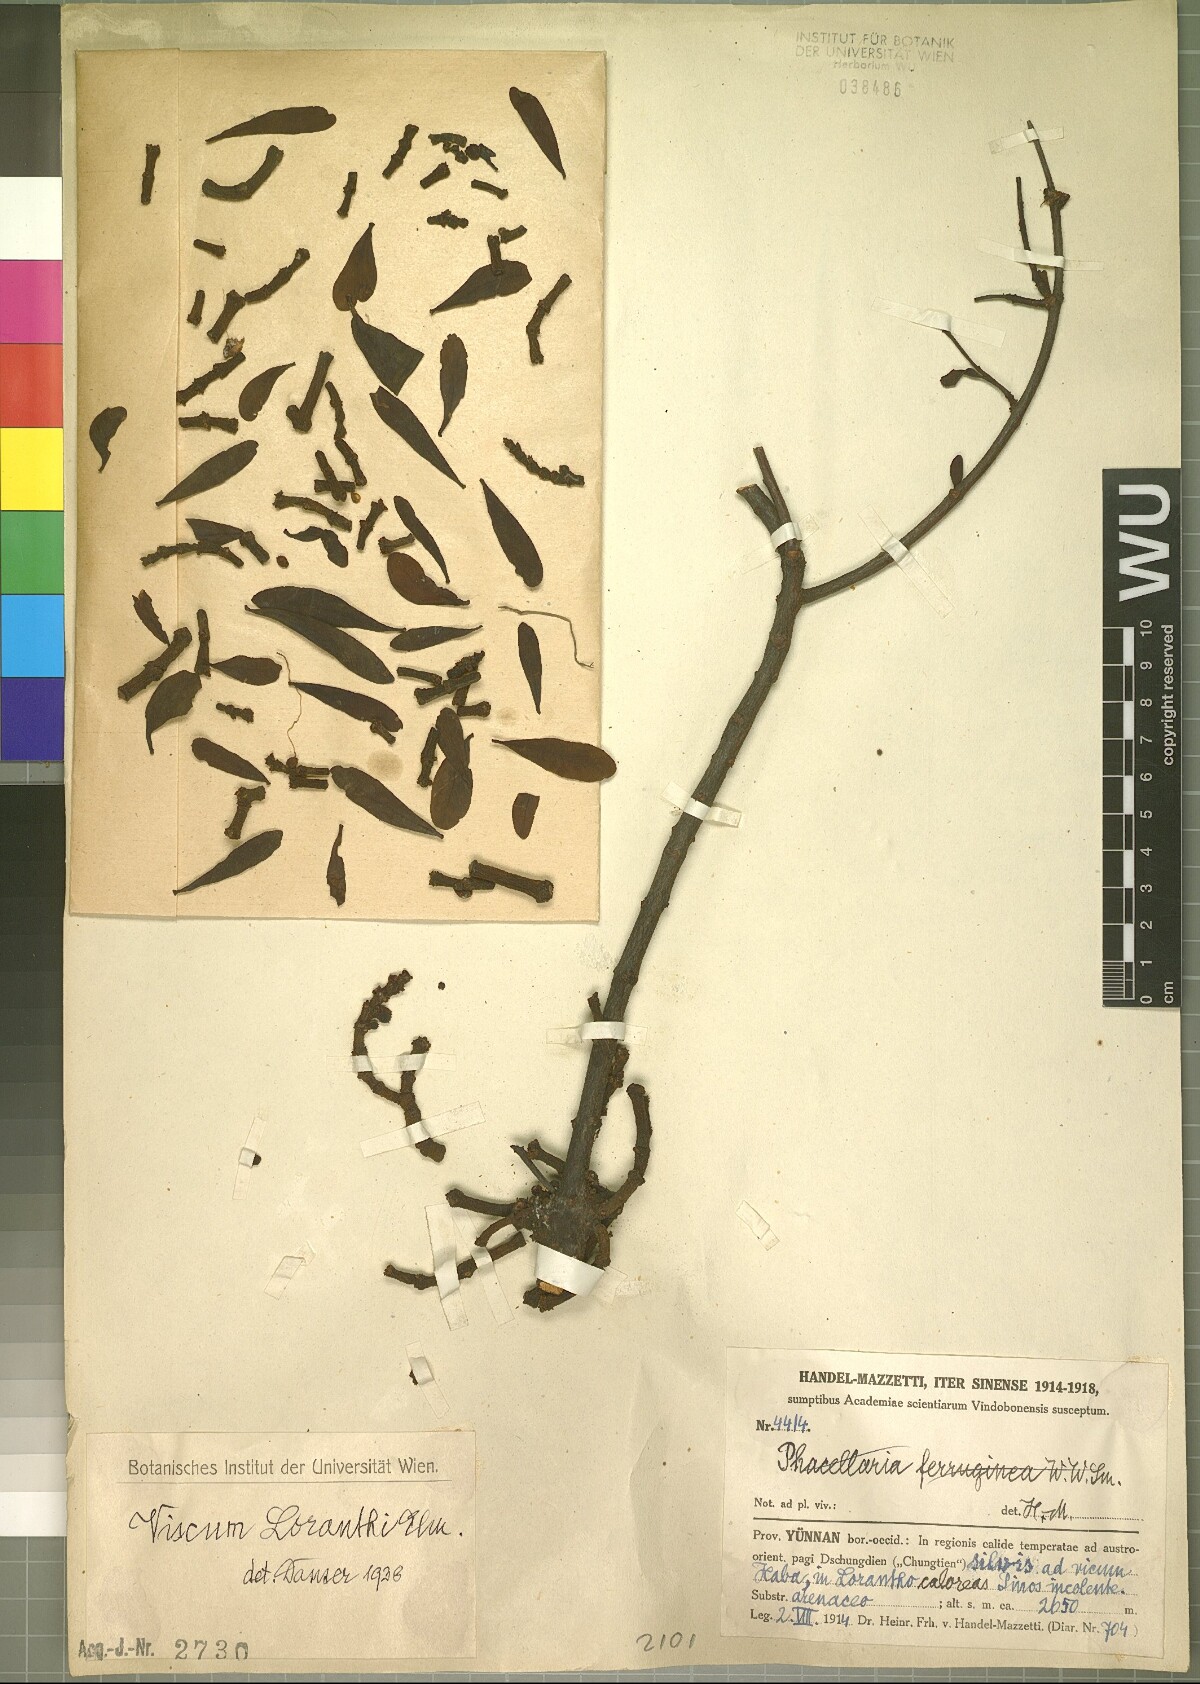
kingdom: Plantae
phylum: Tracheophyta
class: Magnoliopsida
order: Santalales
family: Viscaceae
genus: Viscum
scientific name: Viscum loranthi
